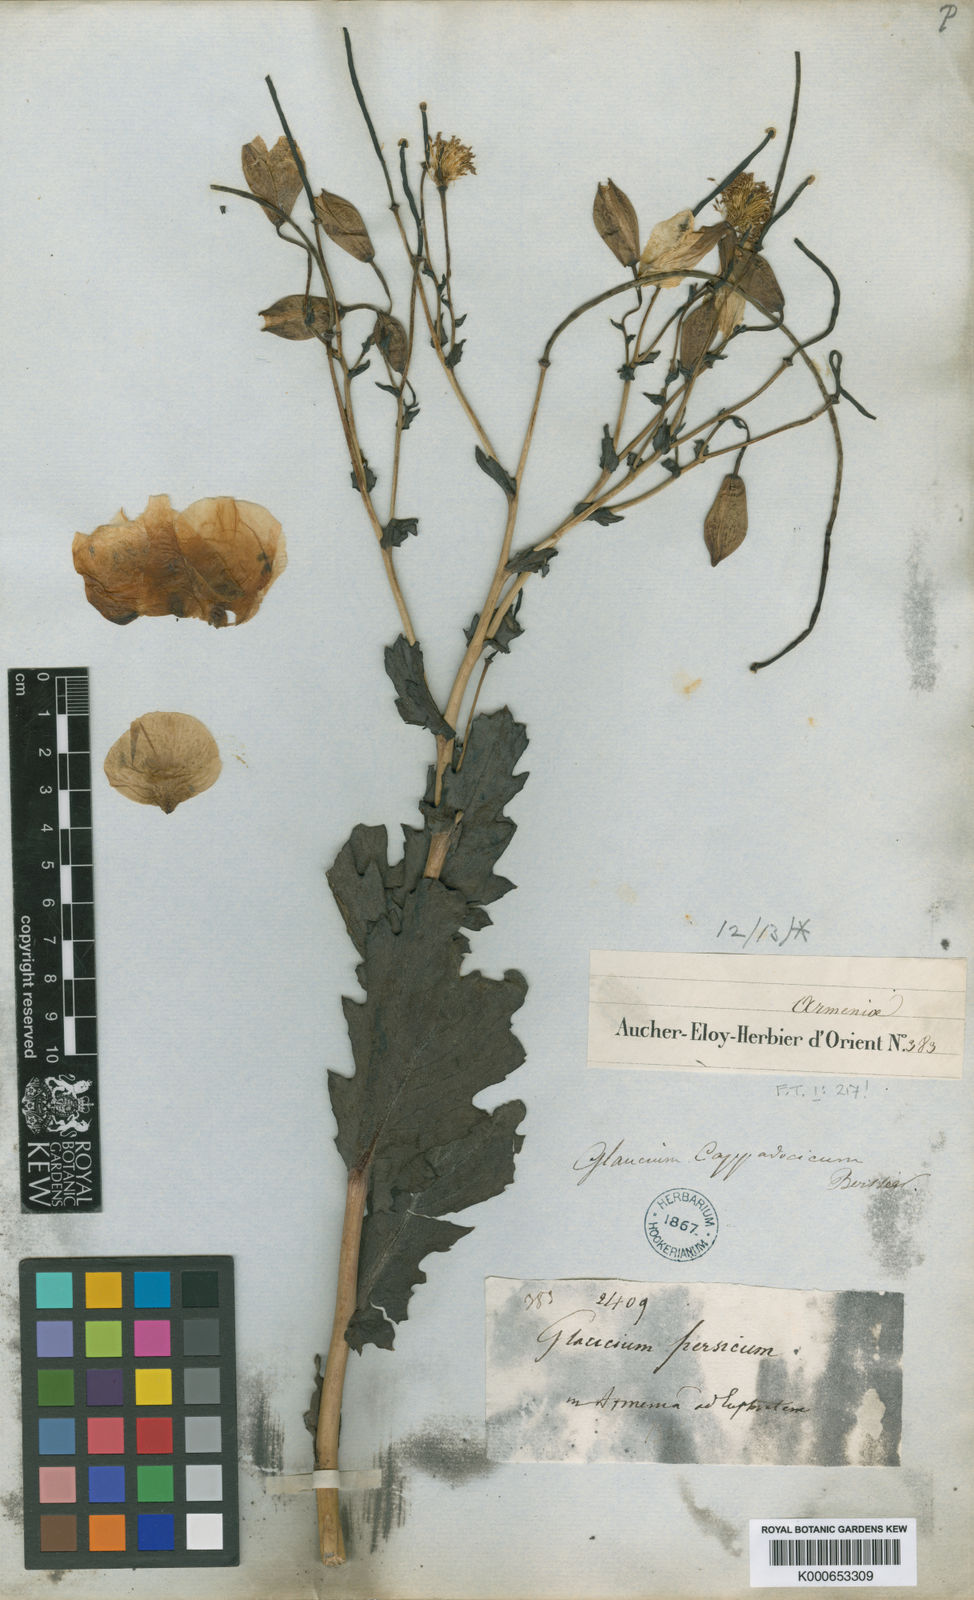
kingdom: Plantae
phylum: Tracheophyta
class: Magnoliopsida
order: Ranunculales
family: Papaveraceae
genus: Glaucium
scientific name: Glaucium cappadocicum
